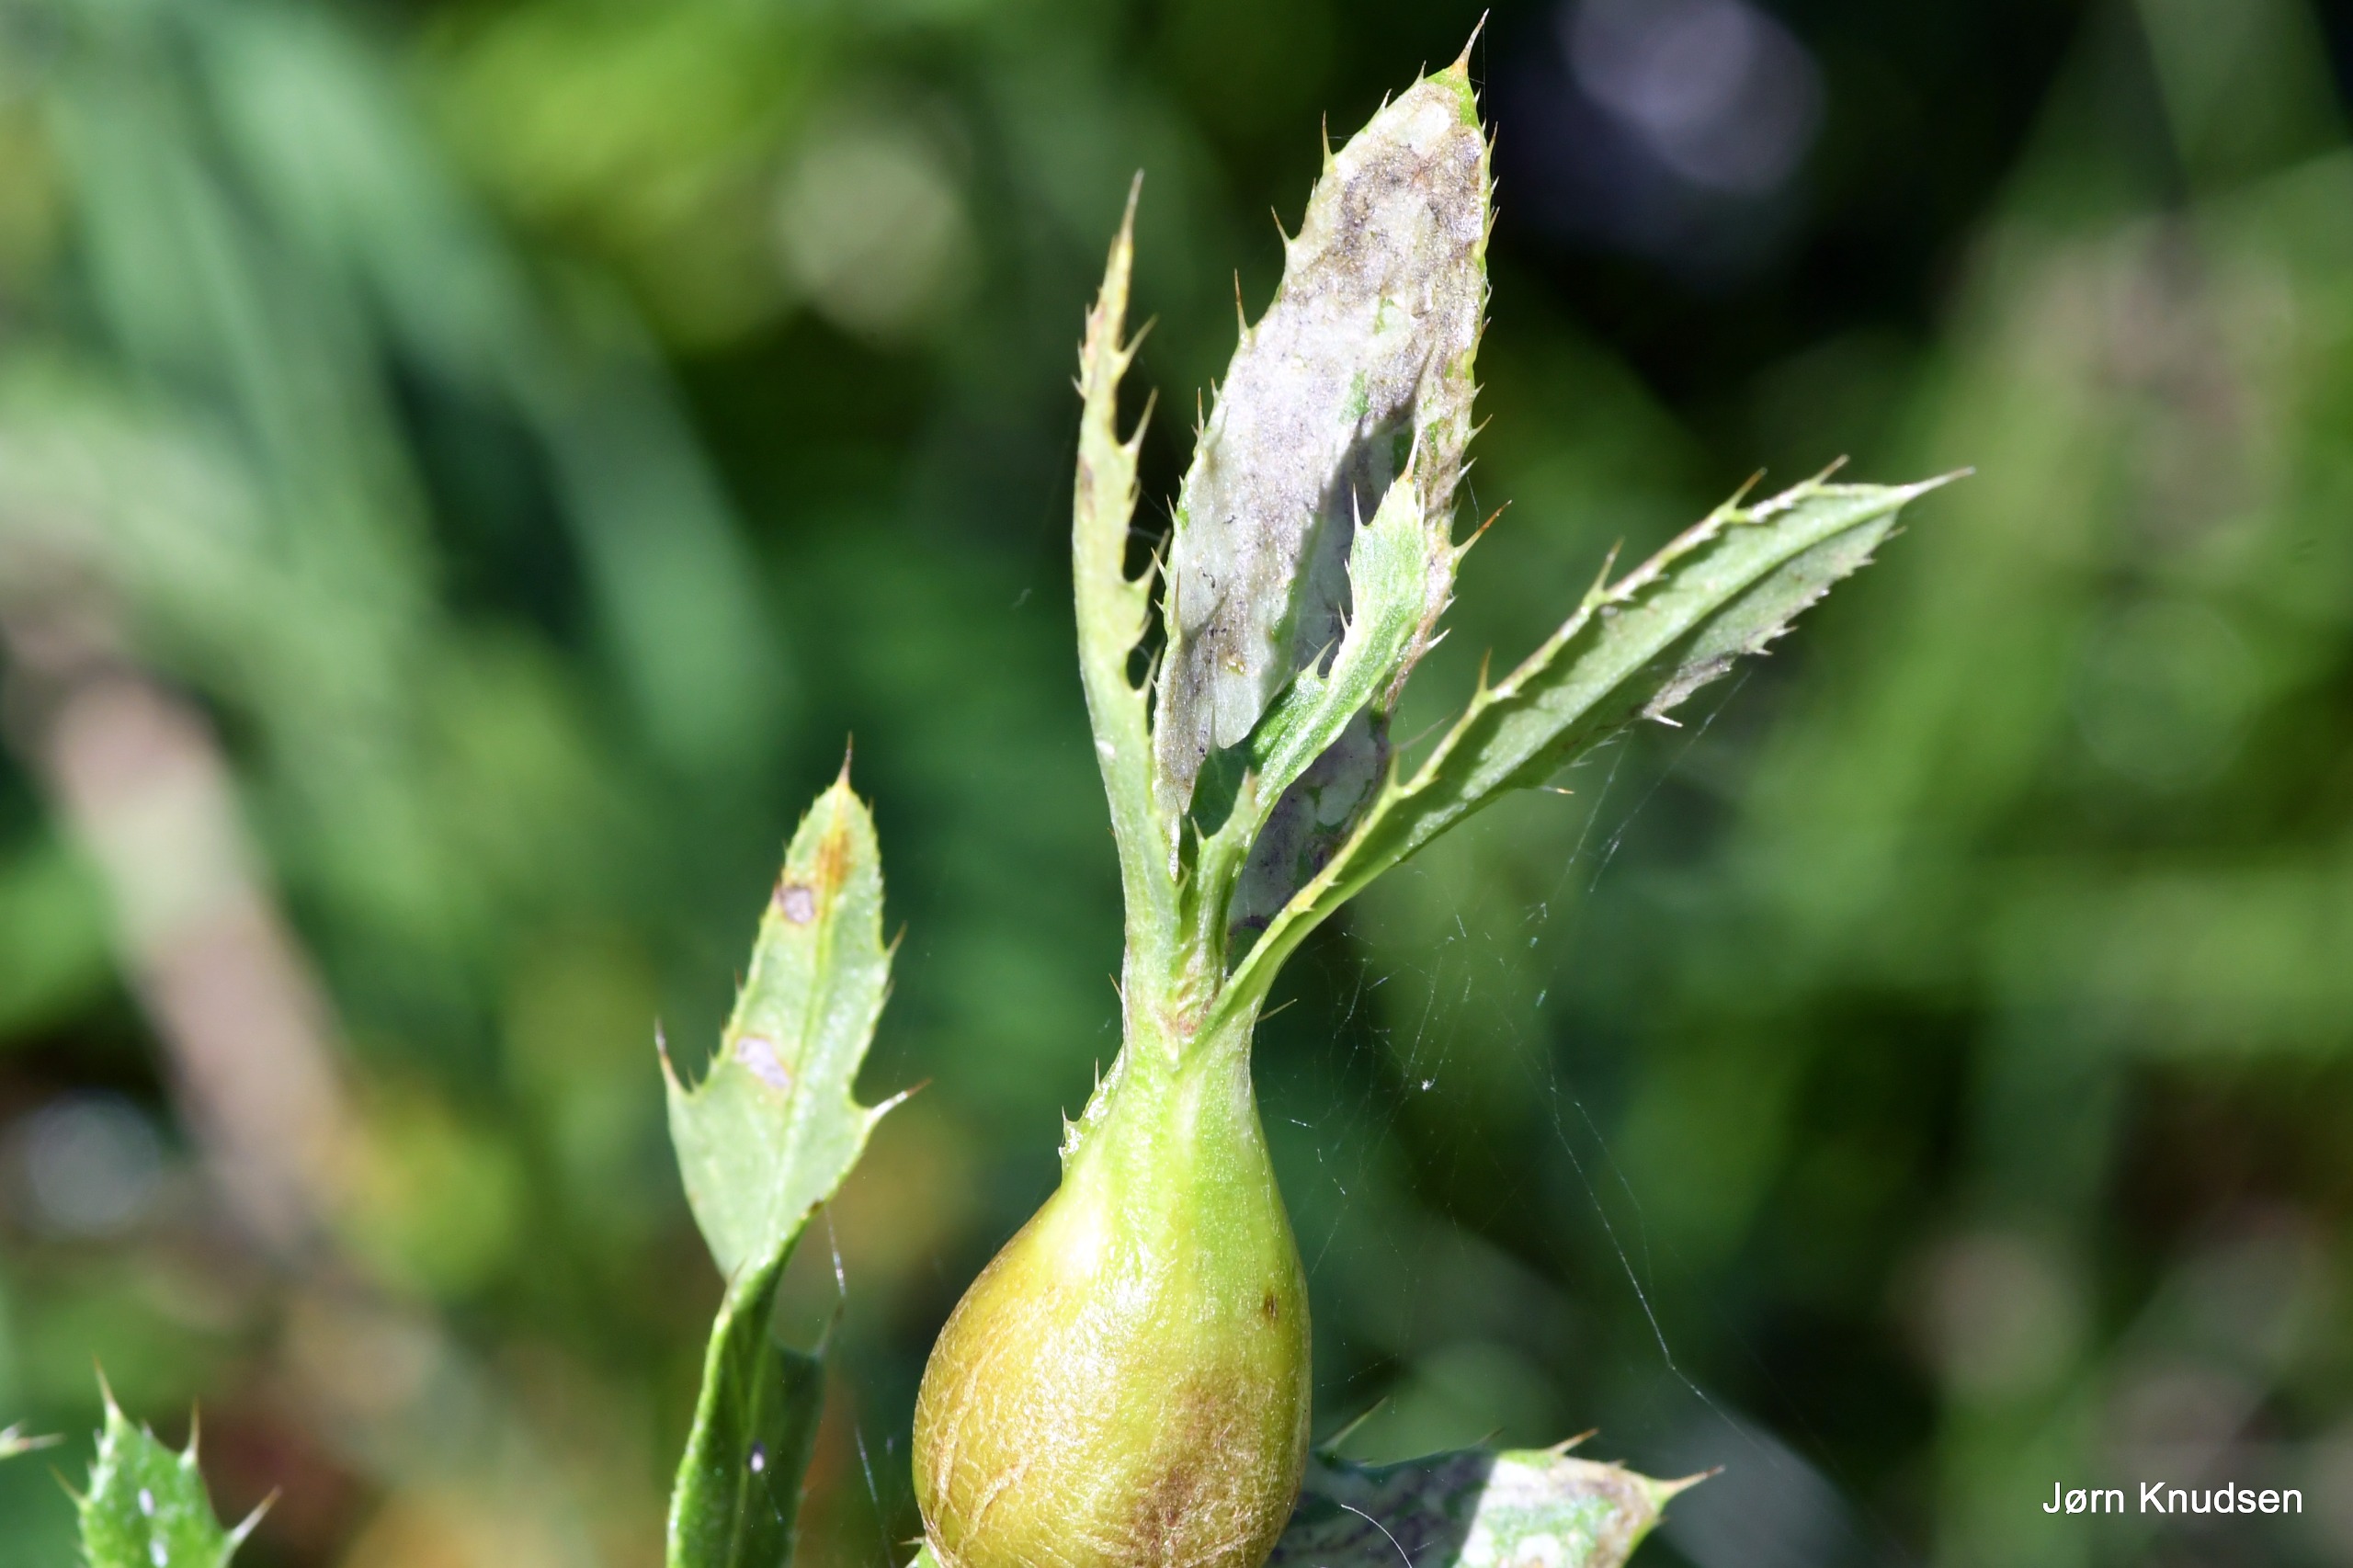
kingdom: Plantae
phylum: Tracheophyta
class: Magnoliopsida
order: Asterales
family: Asteraceae
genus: Cirsium
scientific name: Cirsium arvense
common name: Ager-tidsel
